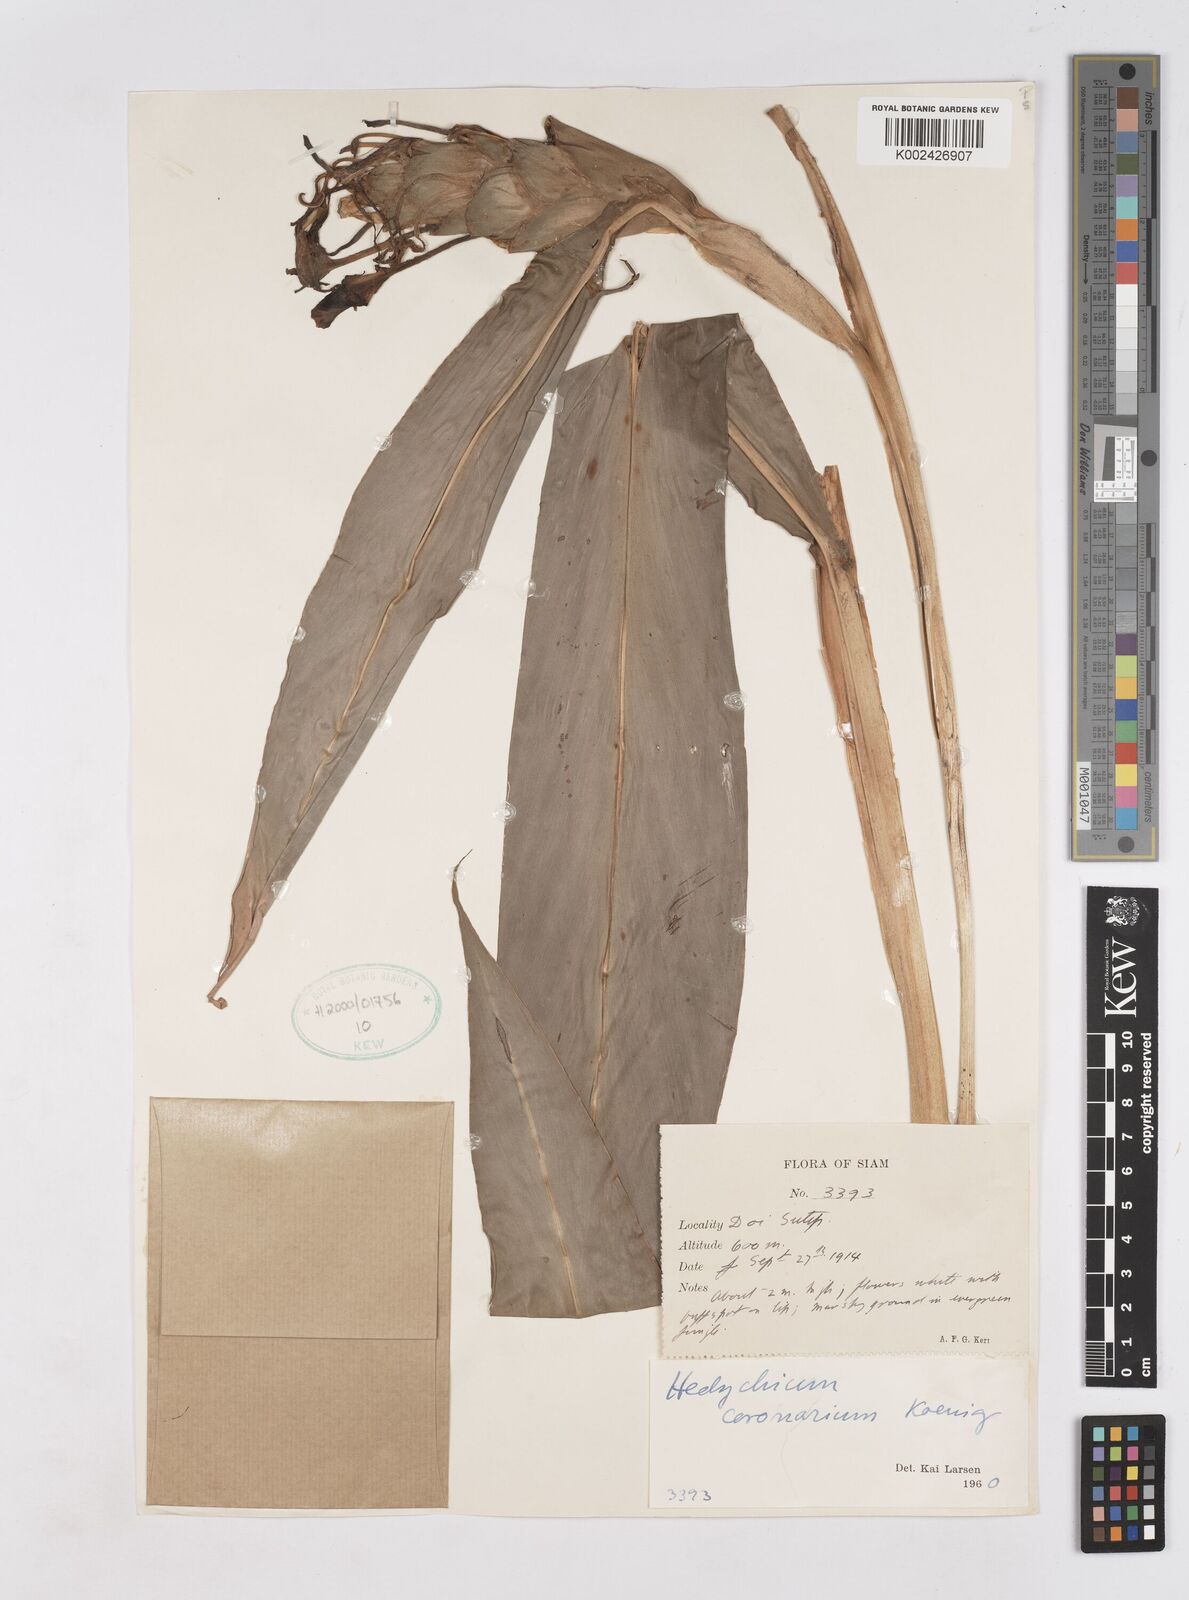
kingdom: Plantae
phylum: Tracheophyta
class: Liliopsida
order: Zingiberales
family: Zingiberaceae
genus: Hedychium
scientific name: Hedychium coronarium
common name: White garland-lily
